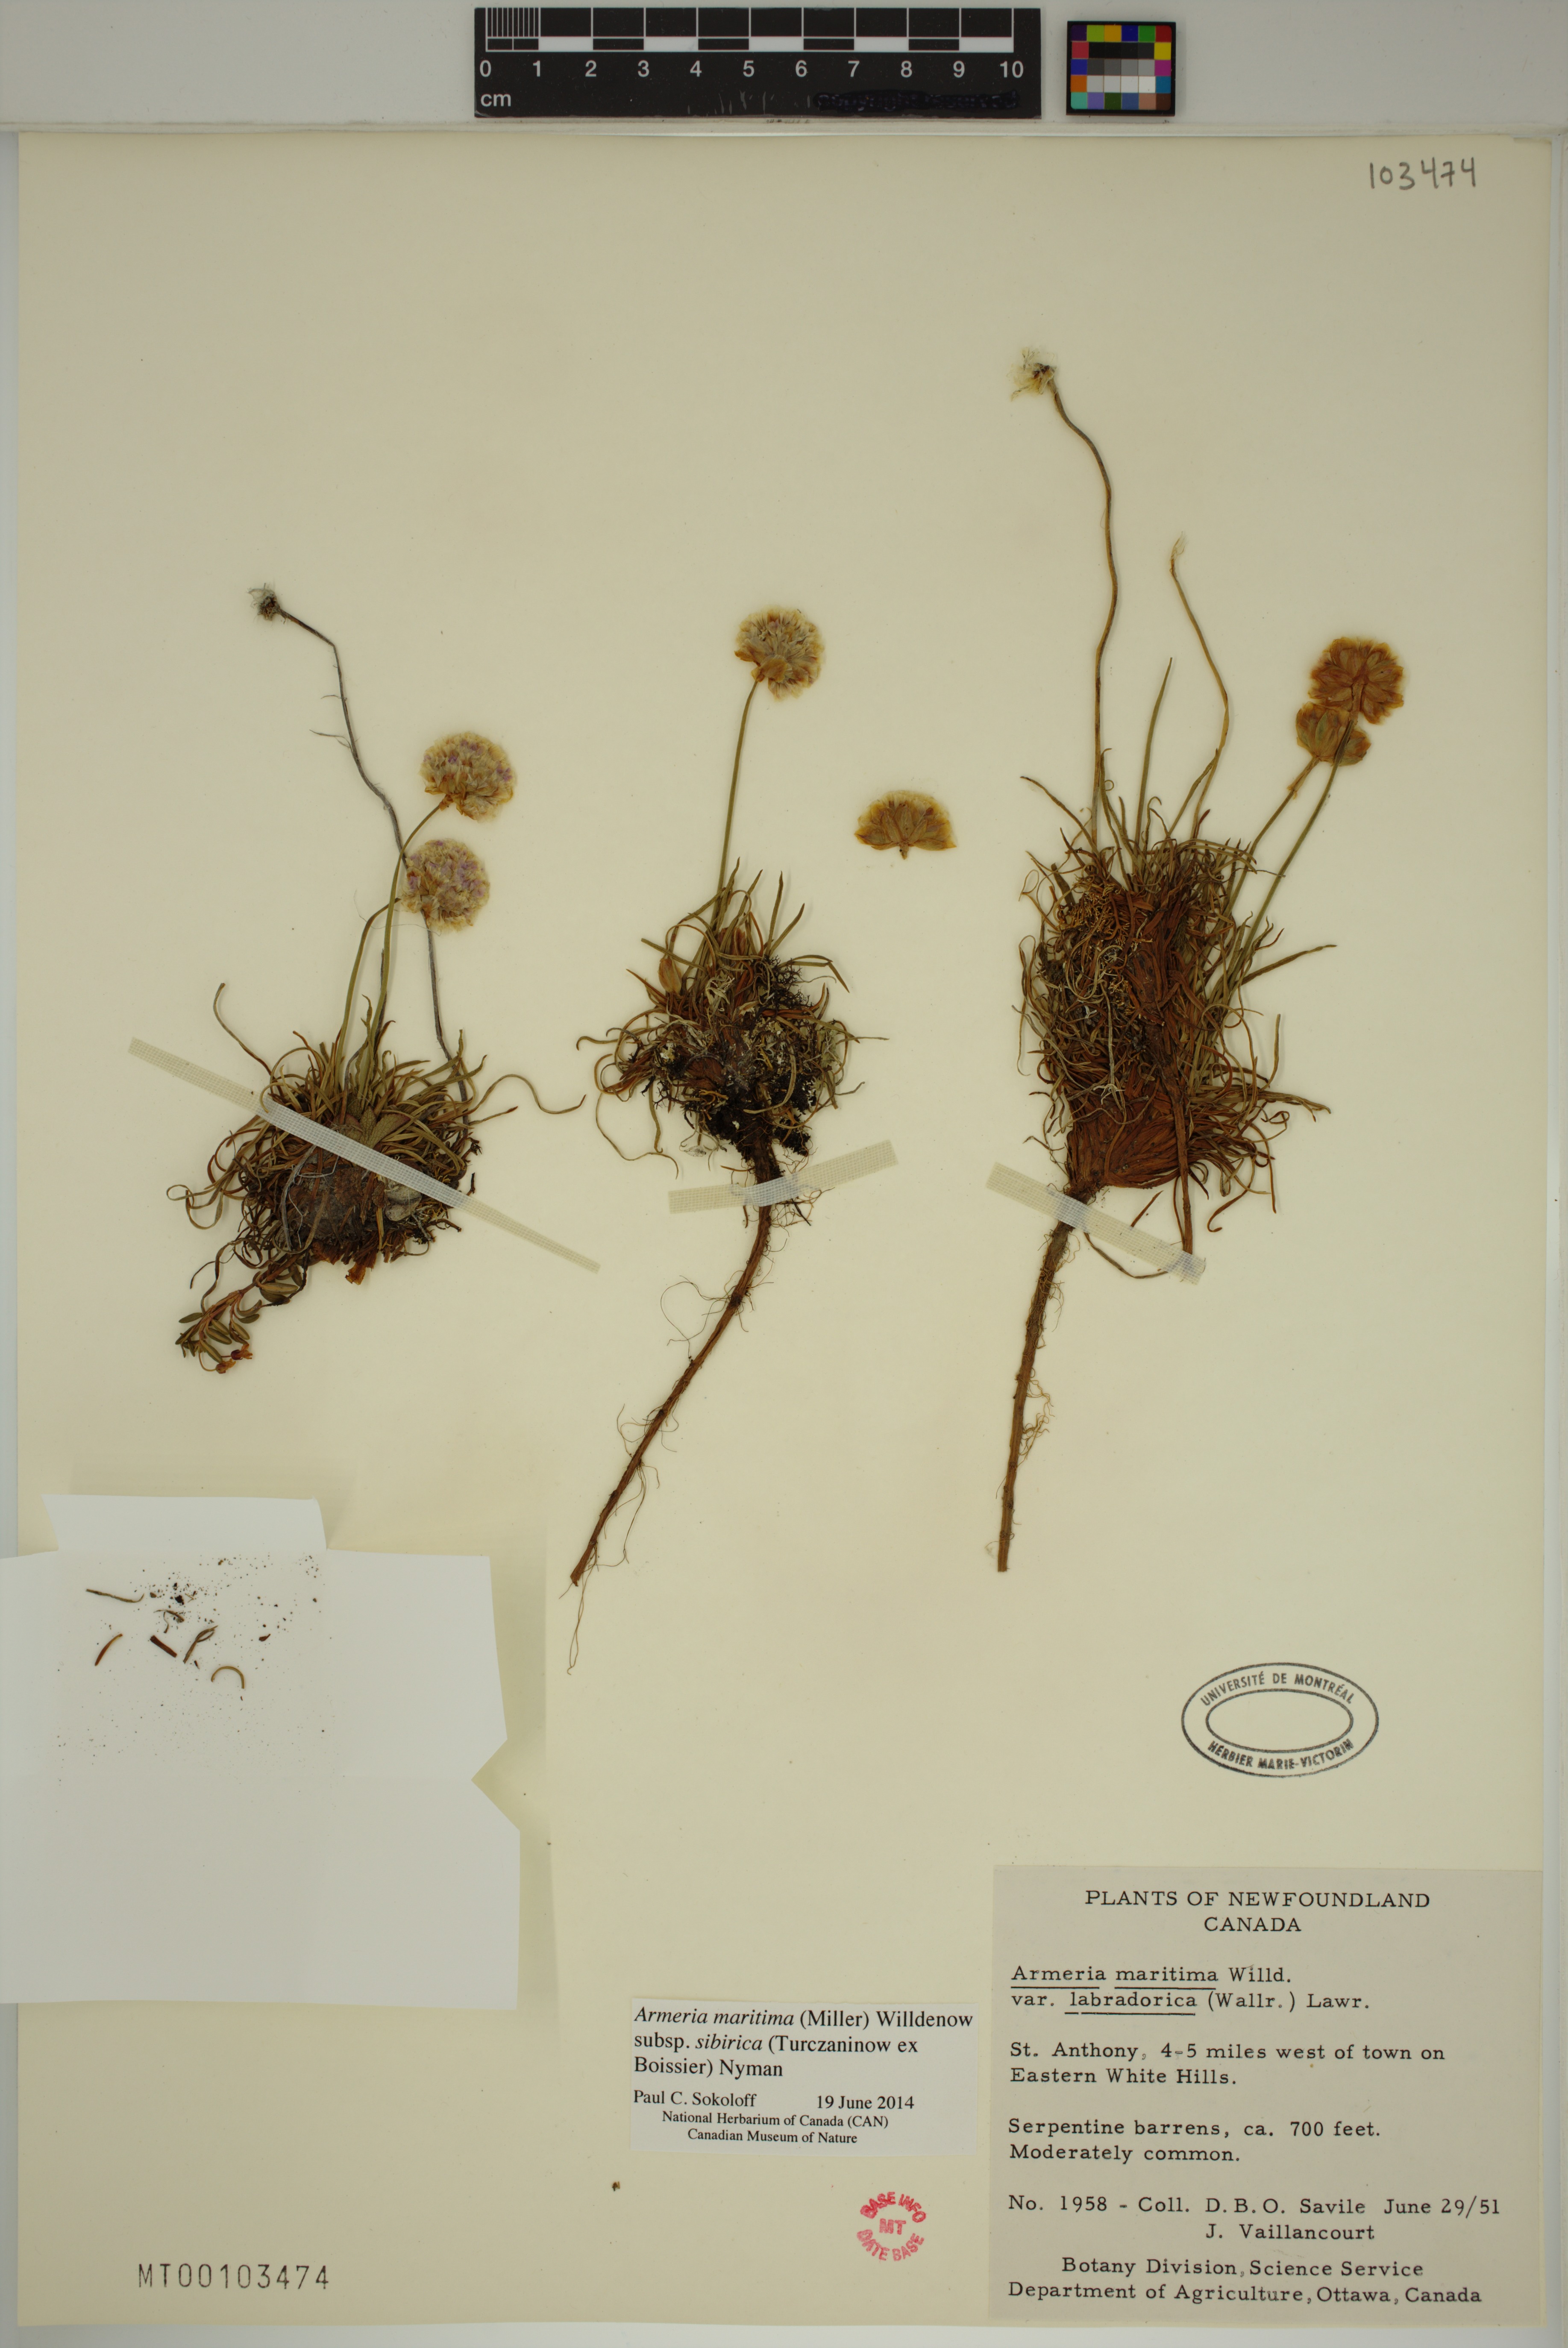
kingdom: Plantae
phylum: Tracheophyta
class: Magnoliopsida
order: Caryophyllales
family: Plumbaginaceae
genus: Armeria
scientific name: Armeria maritima
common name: Thrift
